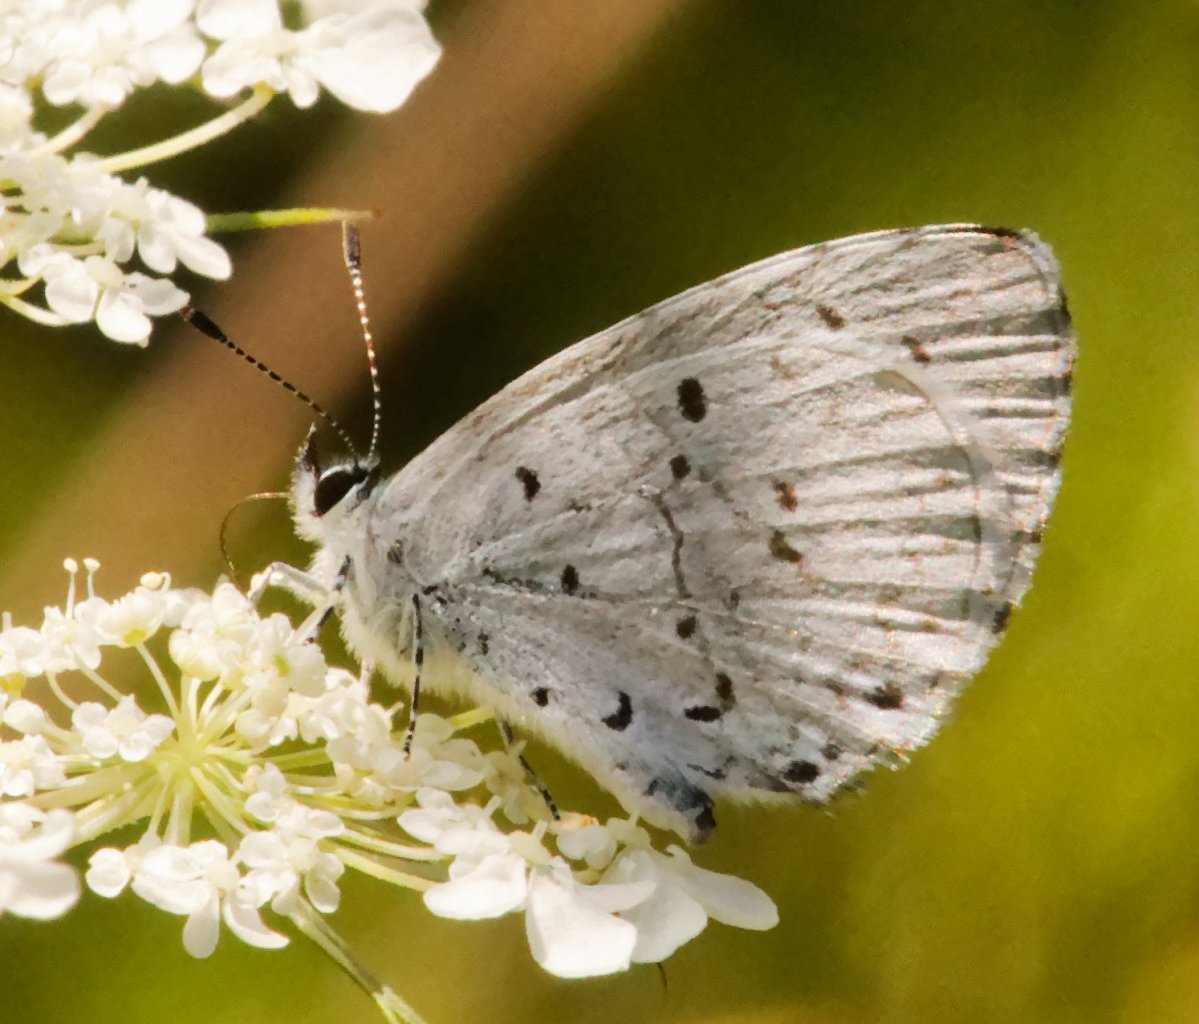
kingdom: Animalia
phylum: Arthropoda
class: Insecta
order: Lepidoptera
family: Lycaenidae
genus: Celastrina
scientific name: Celastrina
